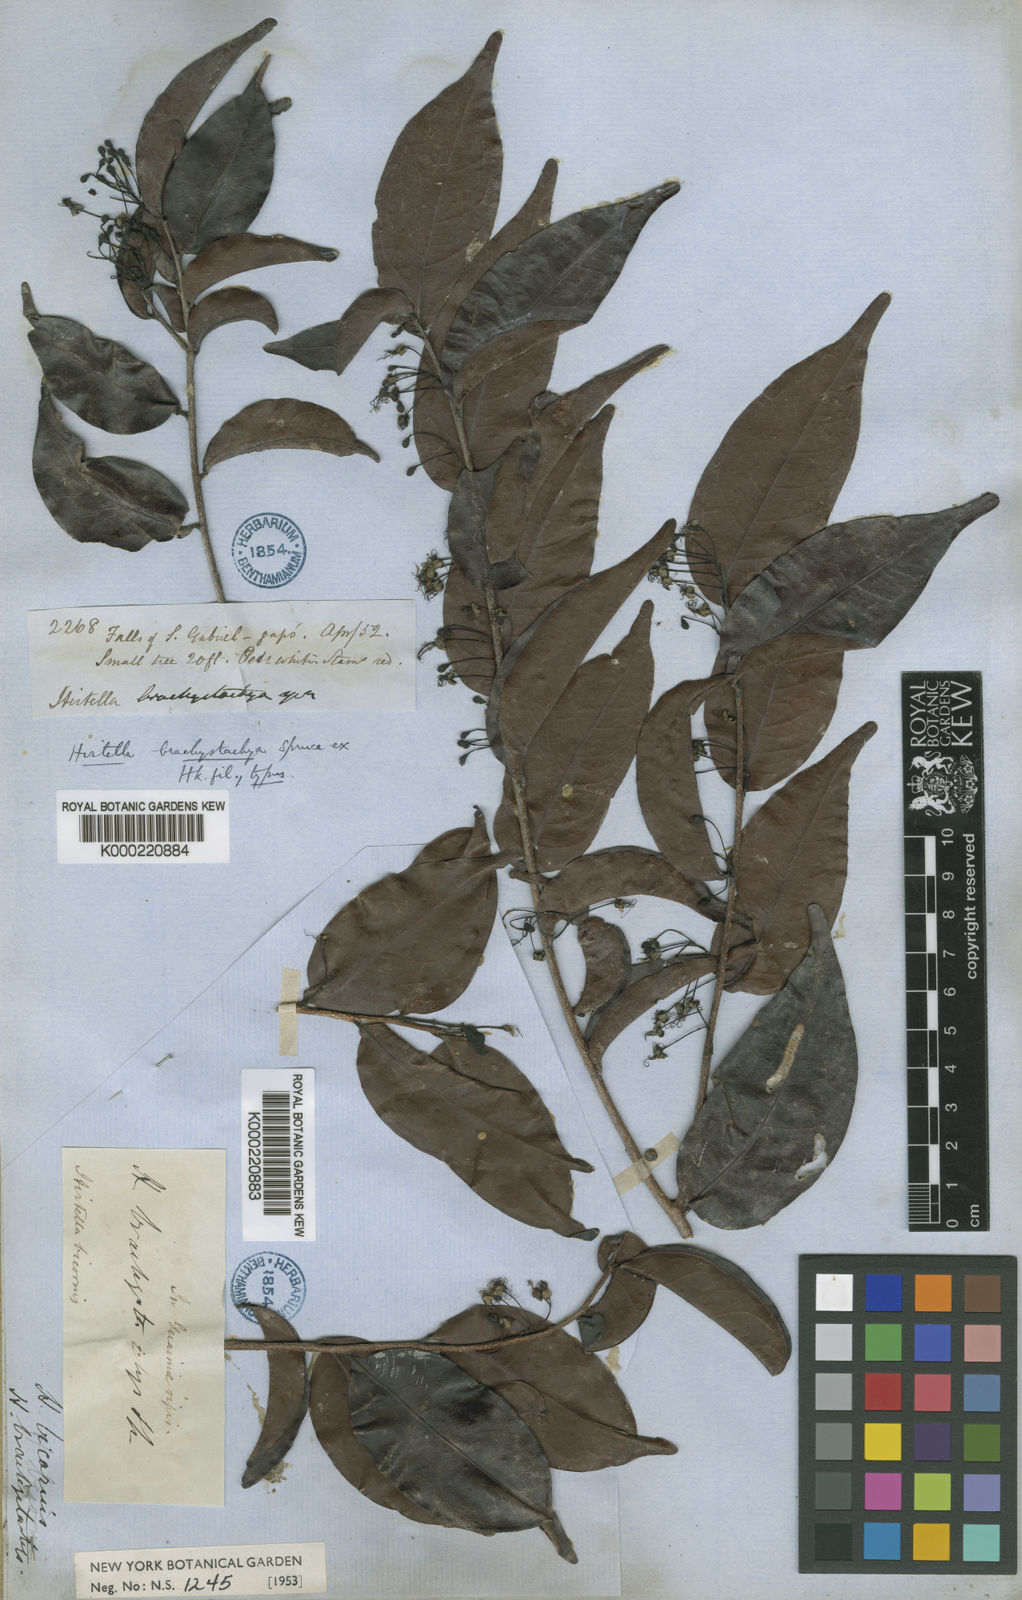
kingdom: Plantae
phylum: Tracheophyta
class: Magnoliopsida
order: Malpighiales
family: Chrysobalanaceae
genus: Hirtella
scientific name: Hirtella
